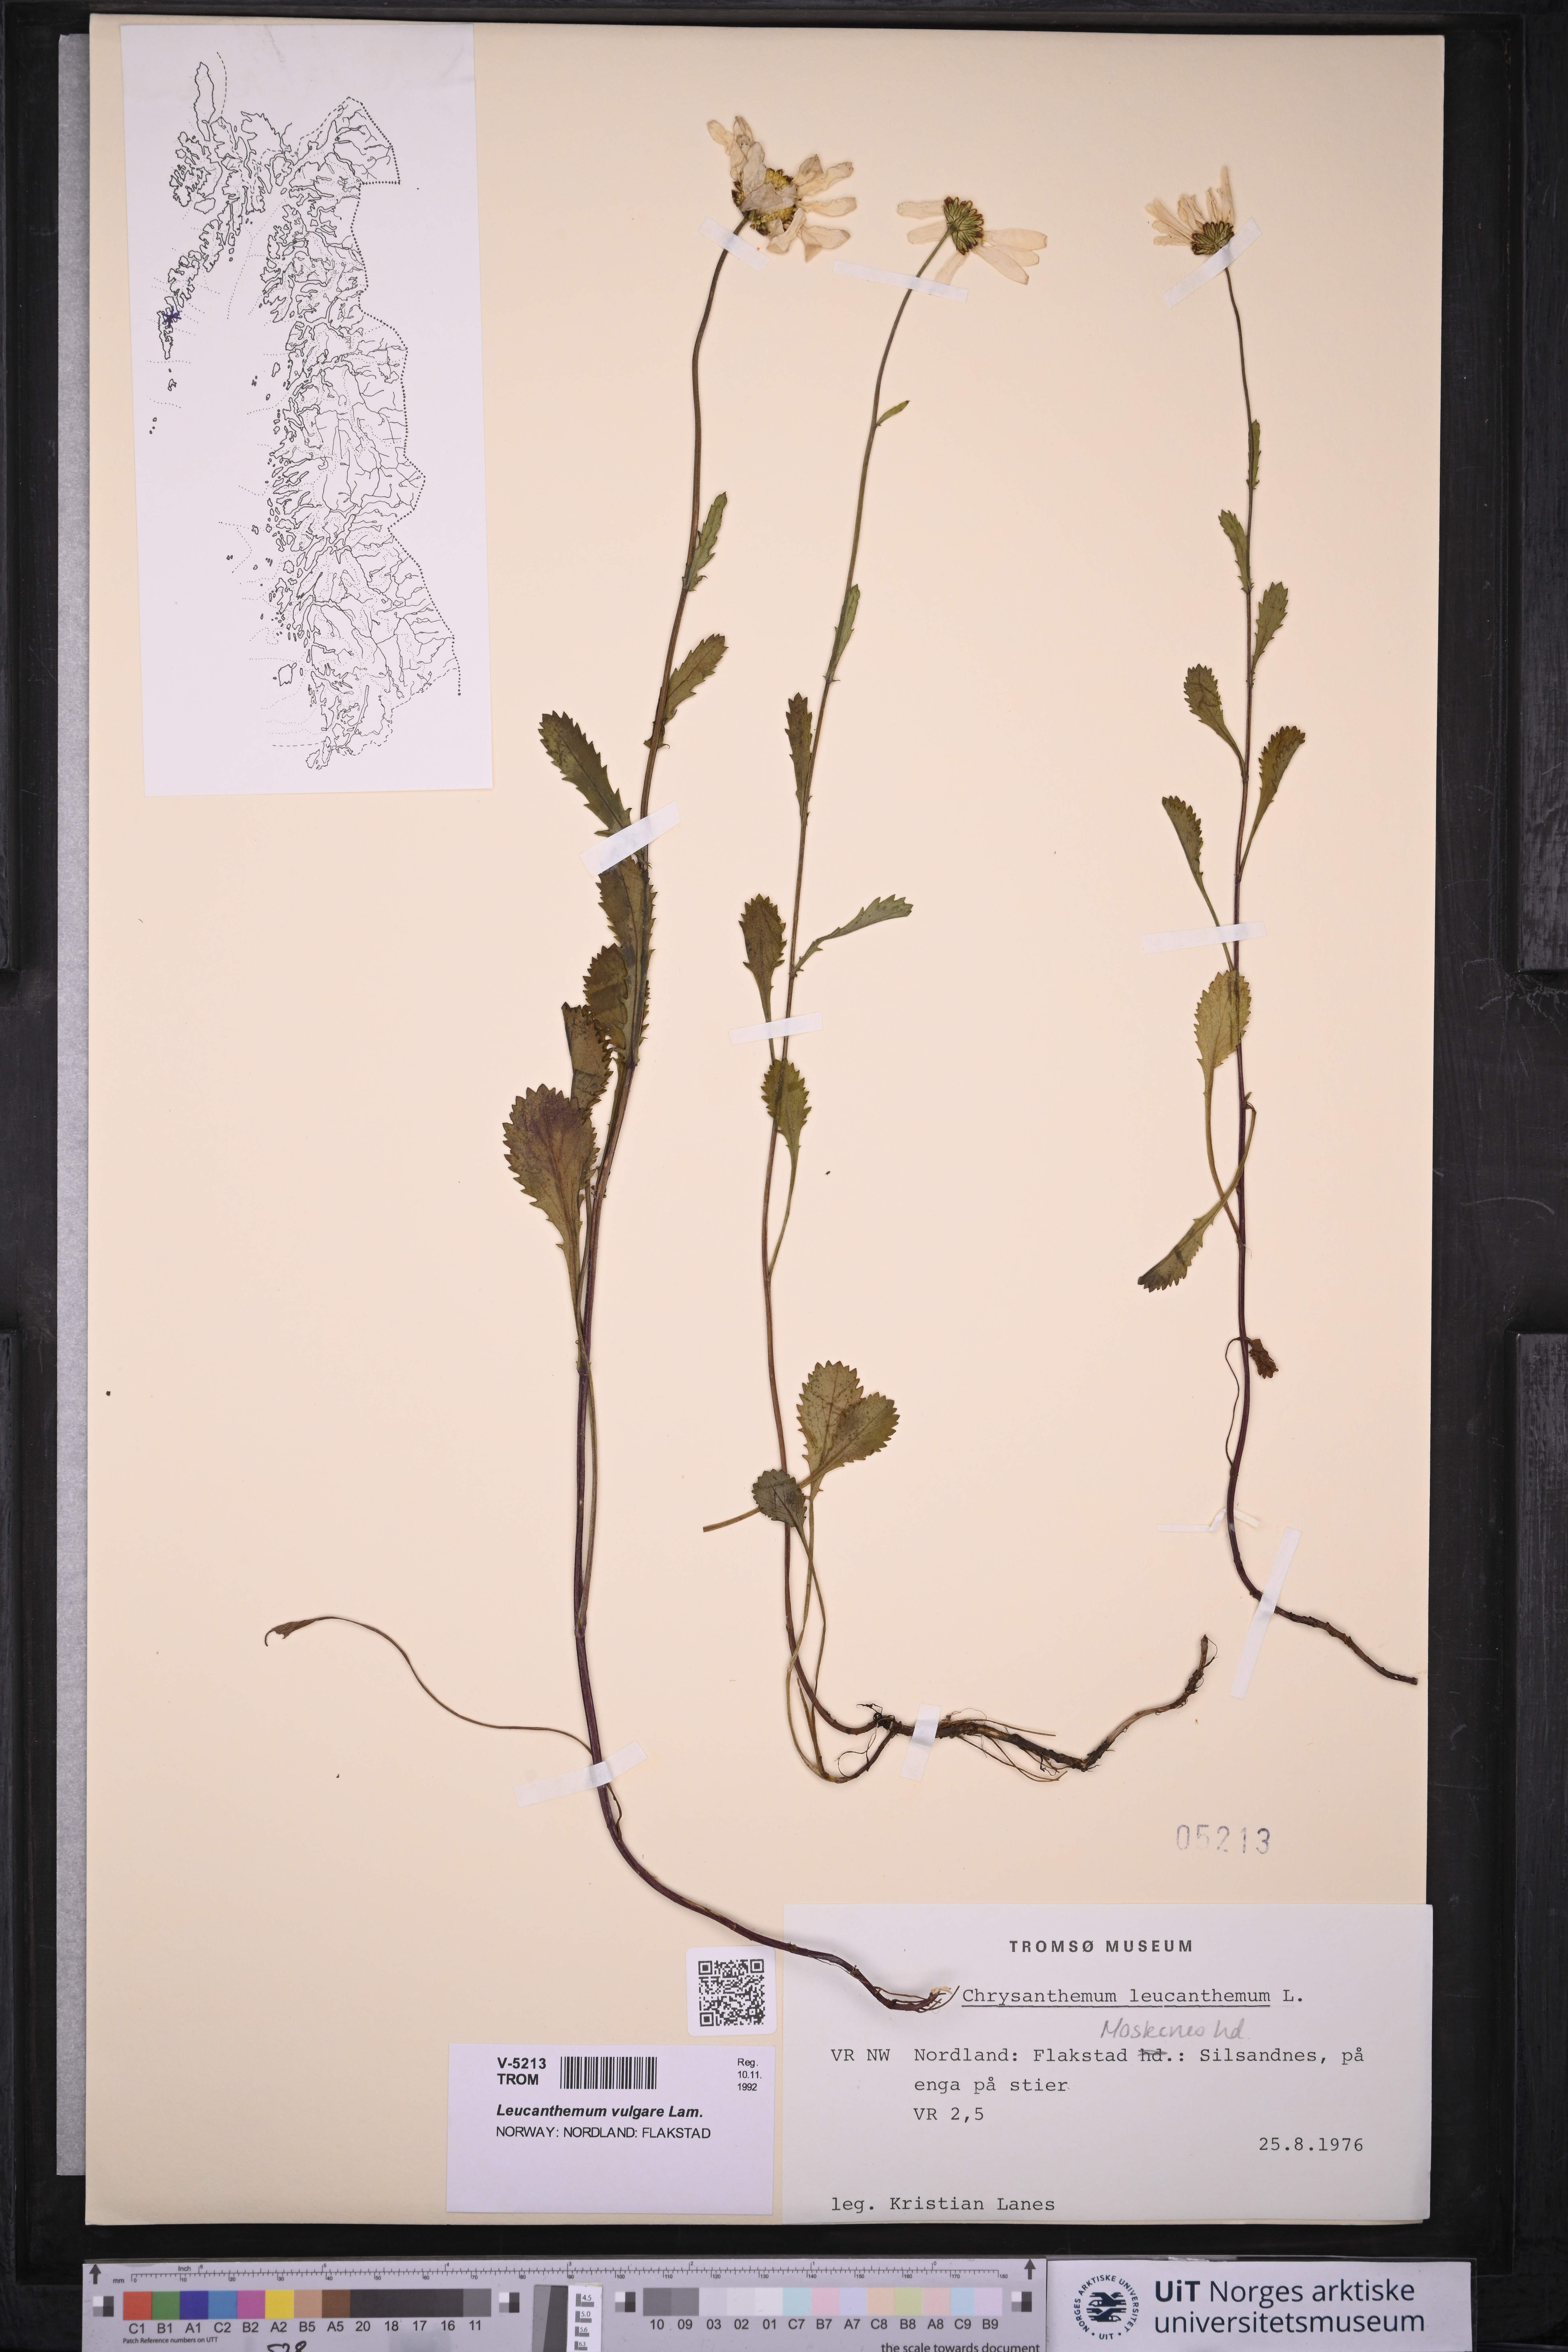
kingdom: Plantae
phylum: Tracheophyta
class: Magnoliopsida
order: Asterales
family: Asteraceae
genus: Leucanthemum
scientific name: Leucanthemum vulgare
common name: Oxeye daisy
